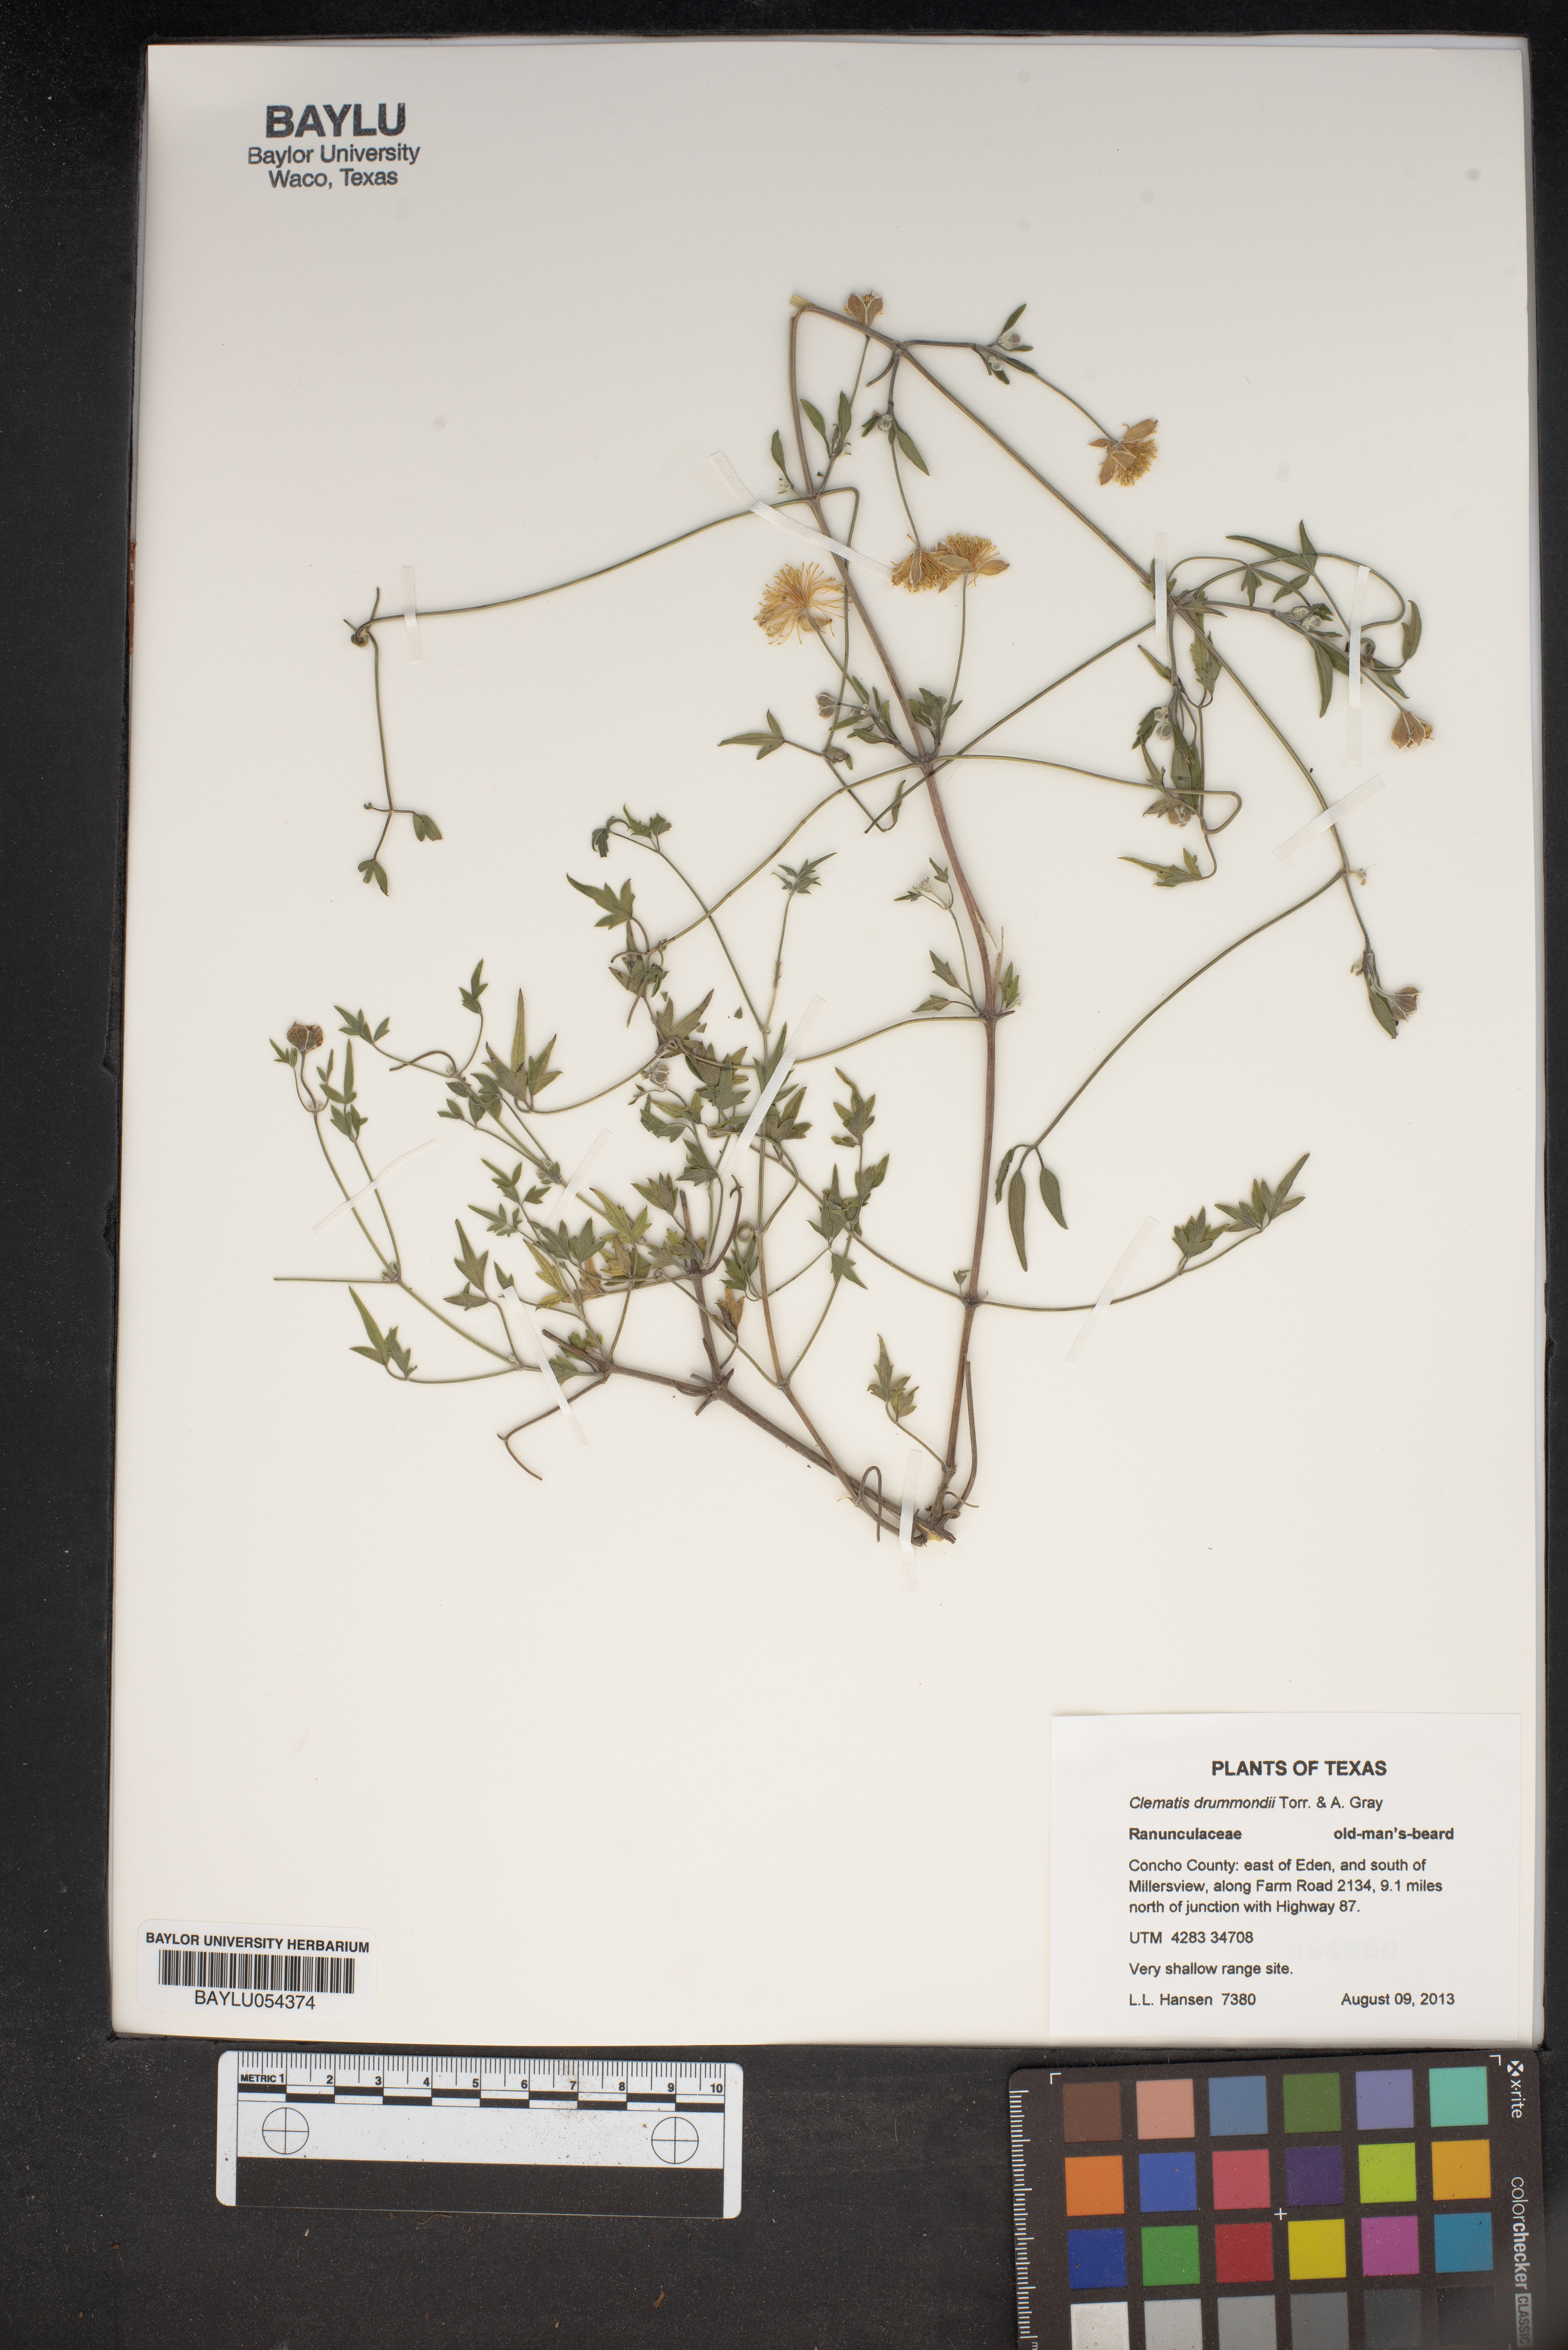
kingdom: Plantae
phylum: Tracheophyta
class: Magnoliopsida
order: Ranunculales
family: Ranunculaceae
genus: Clematis
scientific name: Clematis drummondii
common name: Texas virgin's bower
